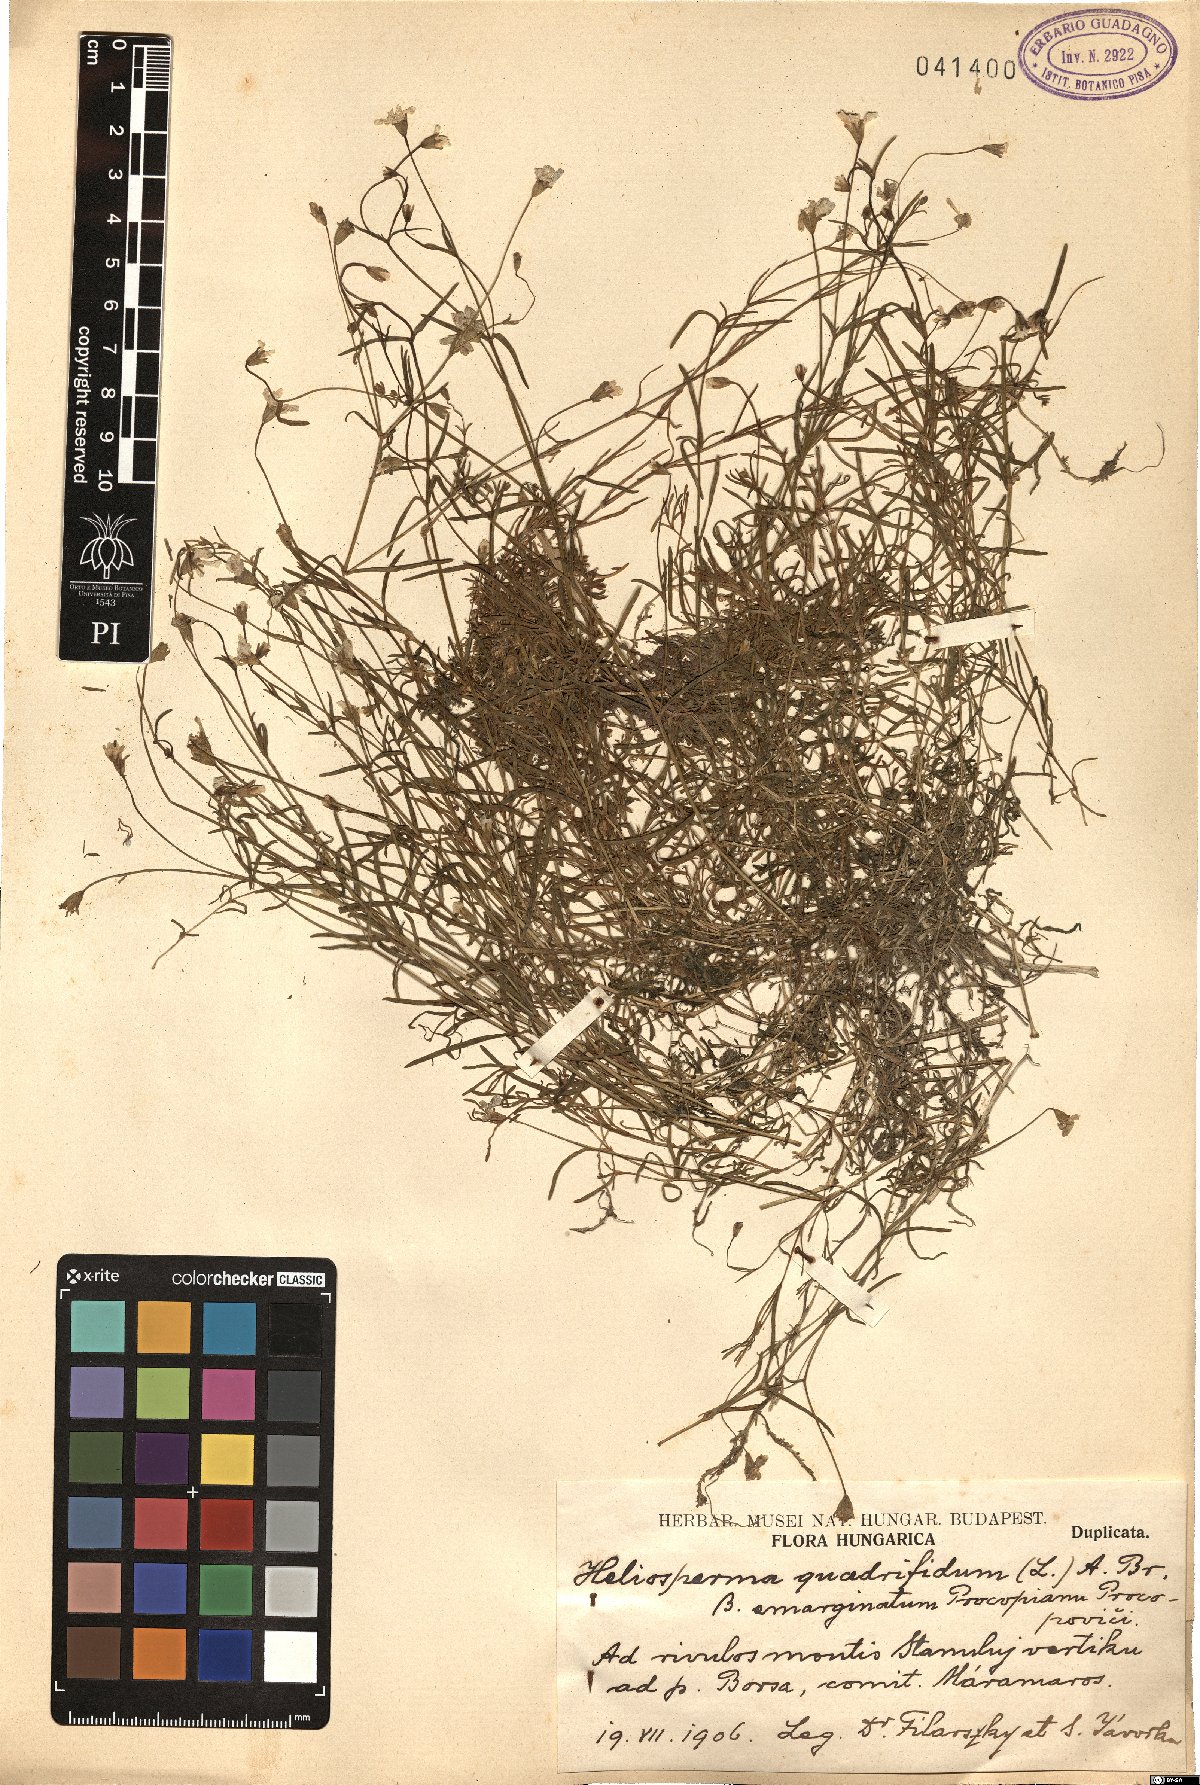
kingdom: Plantae
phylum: Tracheophyta
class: Magnoliopsida
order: Caryophyllales
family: Caryophyllaceae
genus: Heliosperma
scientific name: Heliosperma alpestre
